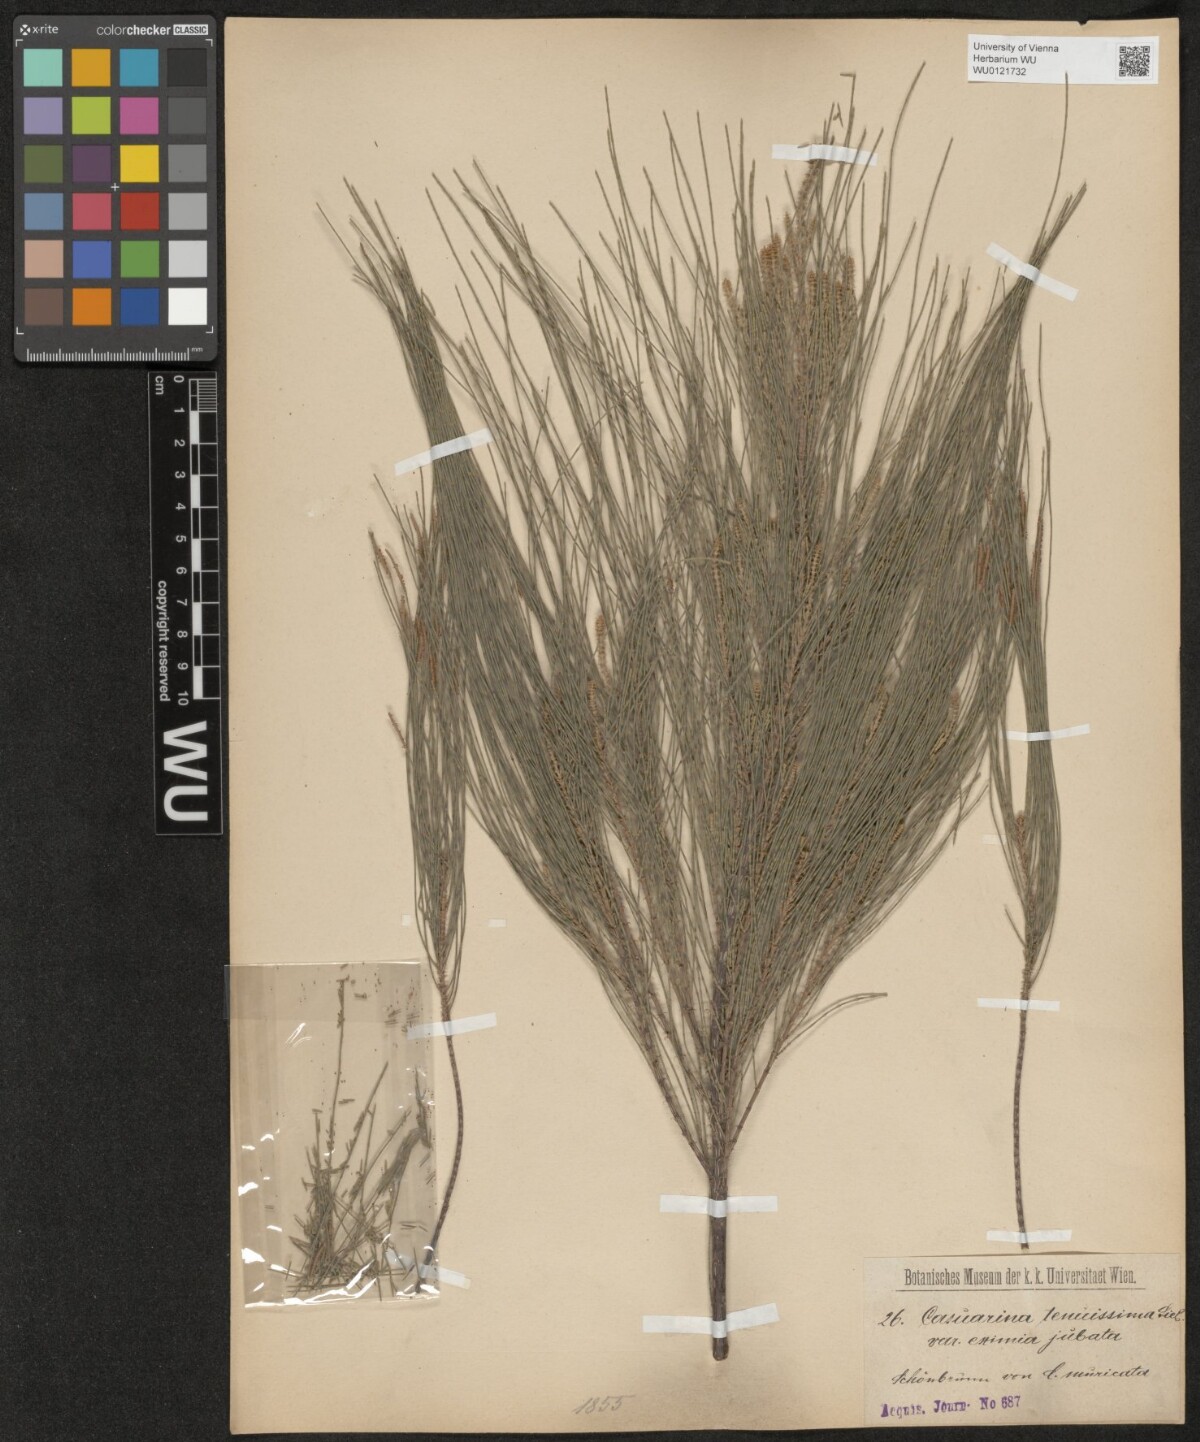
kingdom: Plantae
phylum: Tracheophyta
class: Magnoliopsida
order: Fagales
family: Casuarinaceae
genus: Allocasuarina
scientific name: Allocasuarina torulosa
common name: Forest-oak
